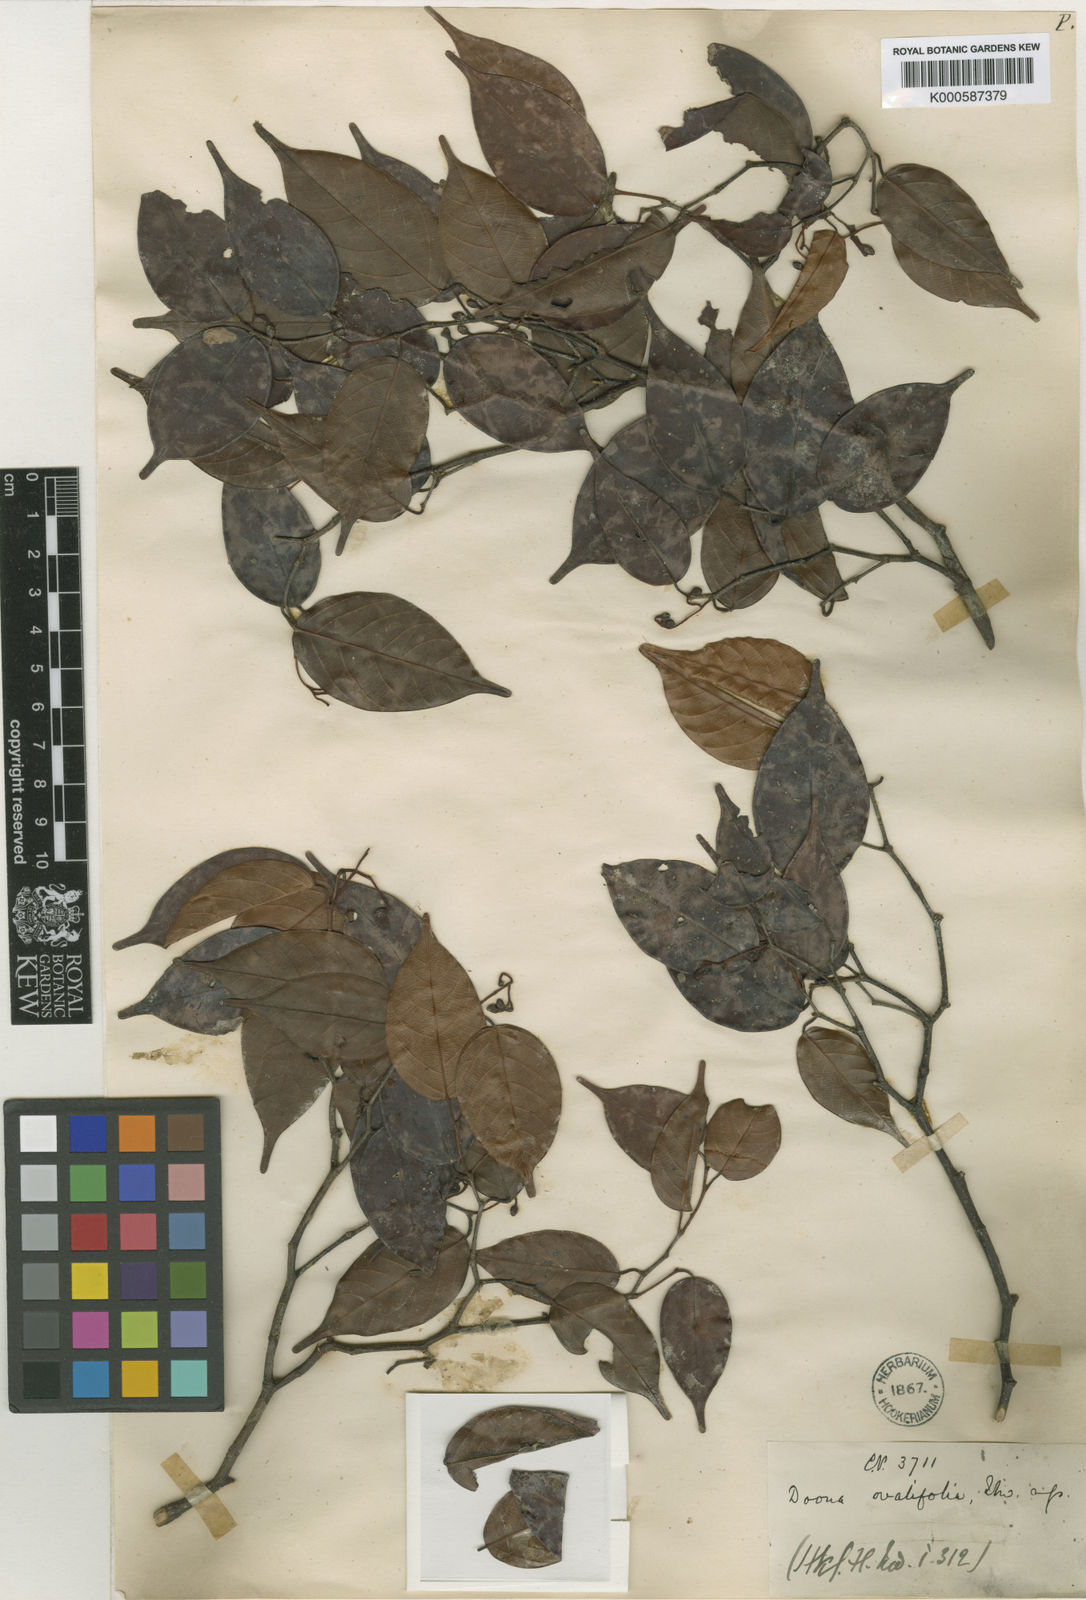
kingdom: Plantae
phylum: Tracheophyta
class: Magnoliopsida
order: Malvales
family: Dipterocarpaceae
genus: Doona
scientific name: Doona ovalifolia
